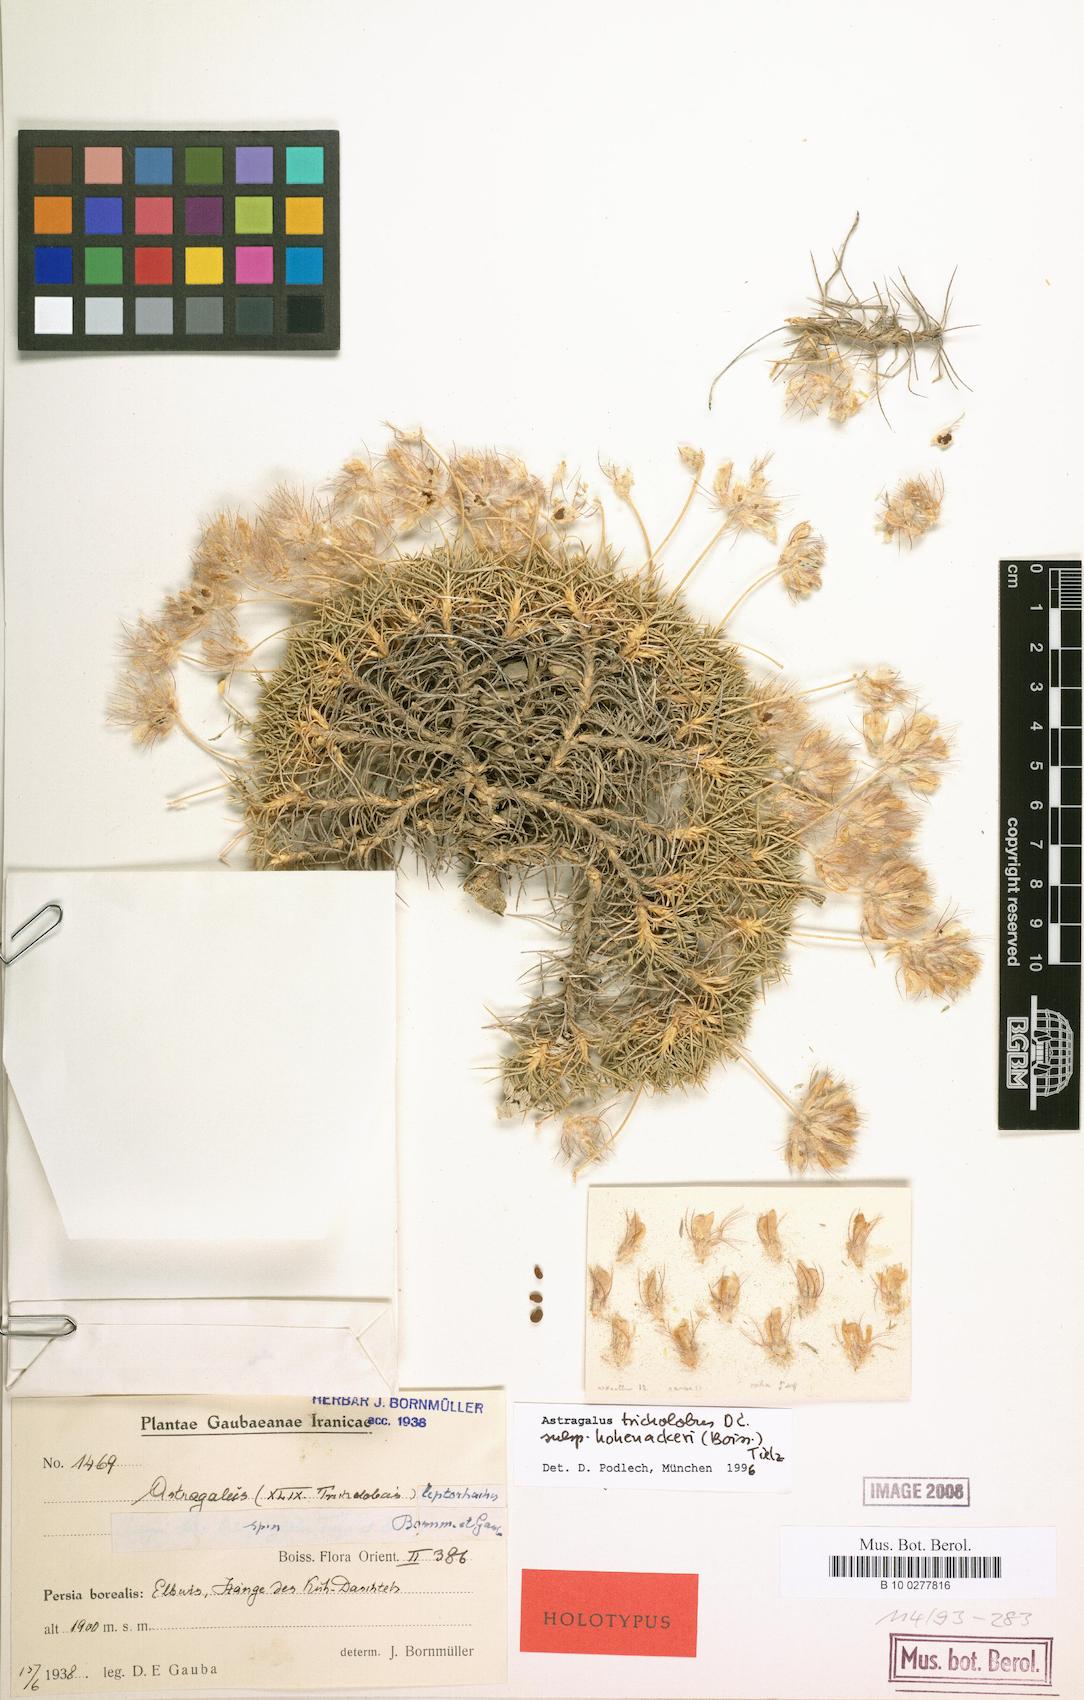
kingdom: Plantae
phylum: Tracheophyta
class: Magnoliopsida
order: Fabales
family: Fabaceae
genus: Astragalus
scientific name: Astragalus hohenackeri
